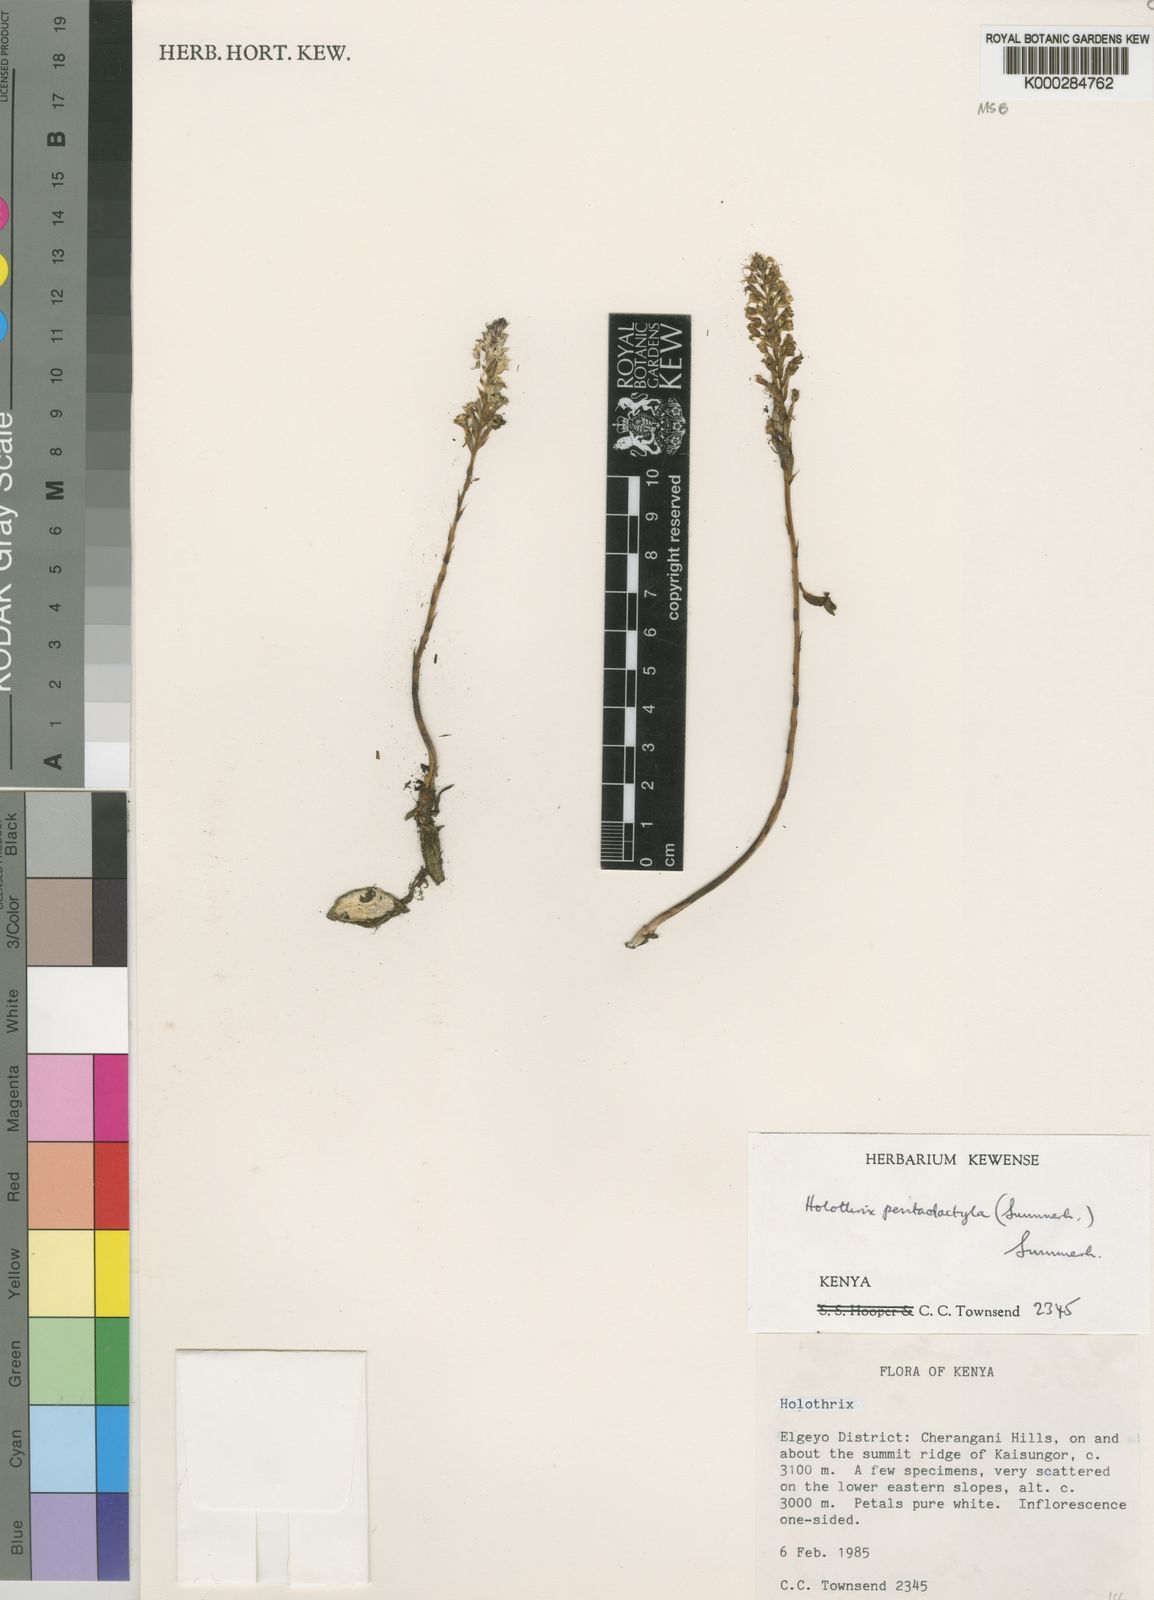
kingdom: Plantae
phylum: Tracheophyta
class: Liliopsida
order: Asparagales
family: Orchidaceae
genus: Holothrix
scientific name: Holothrix pentadactyla
